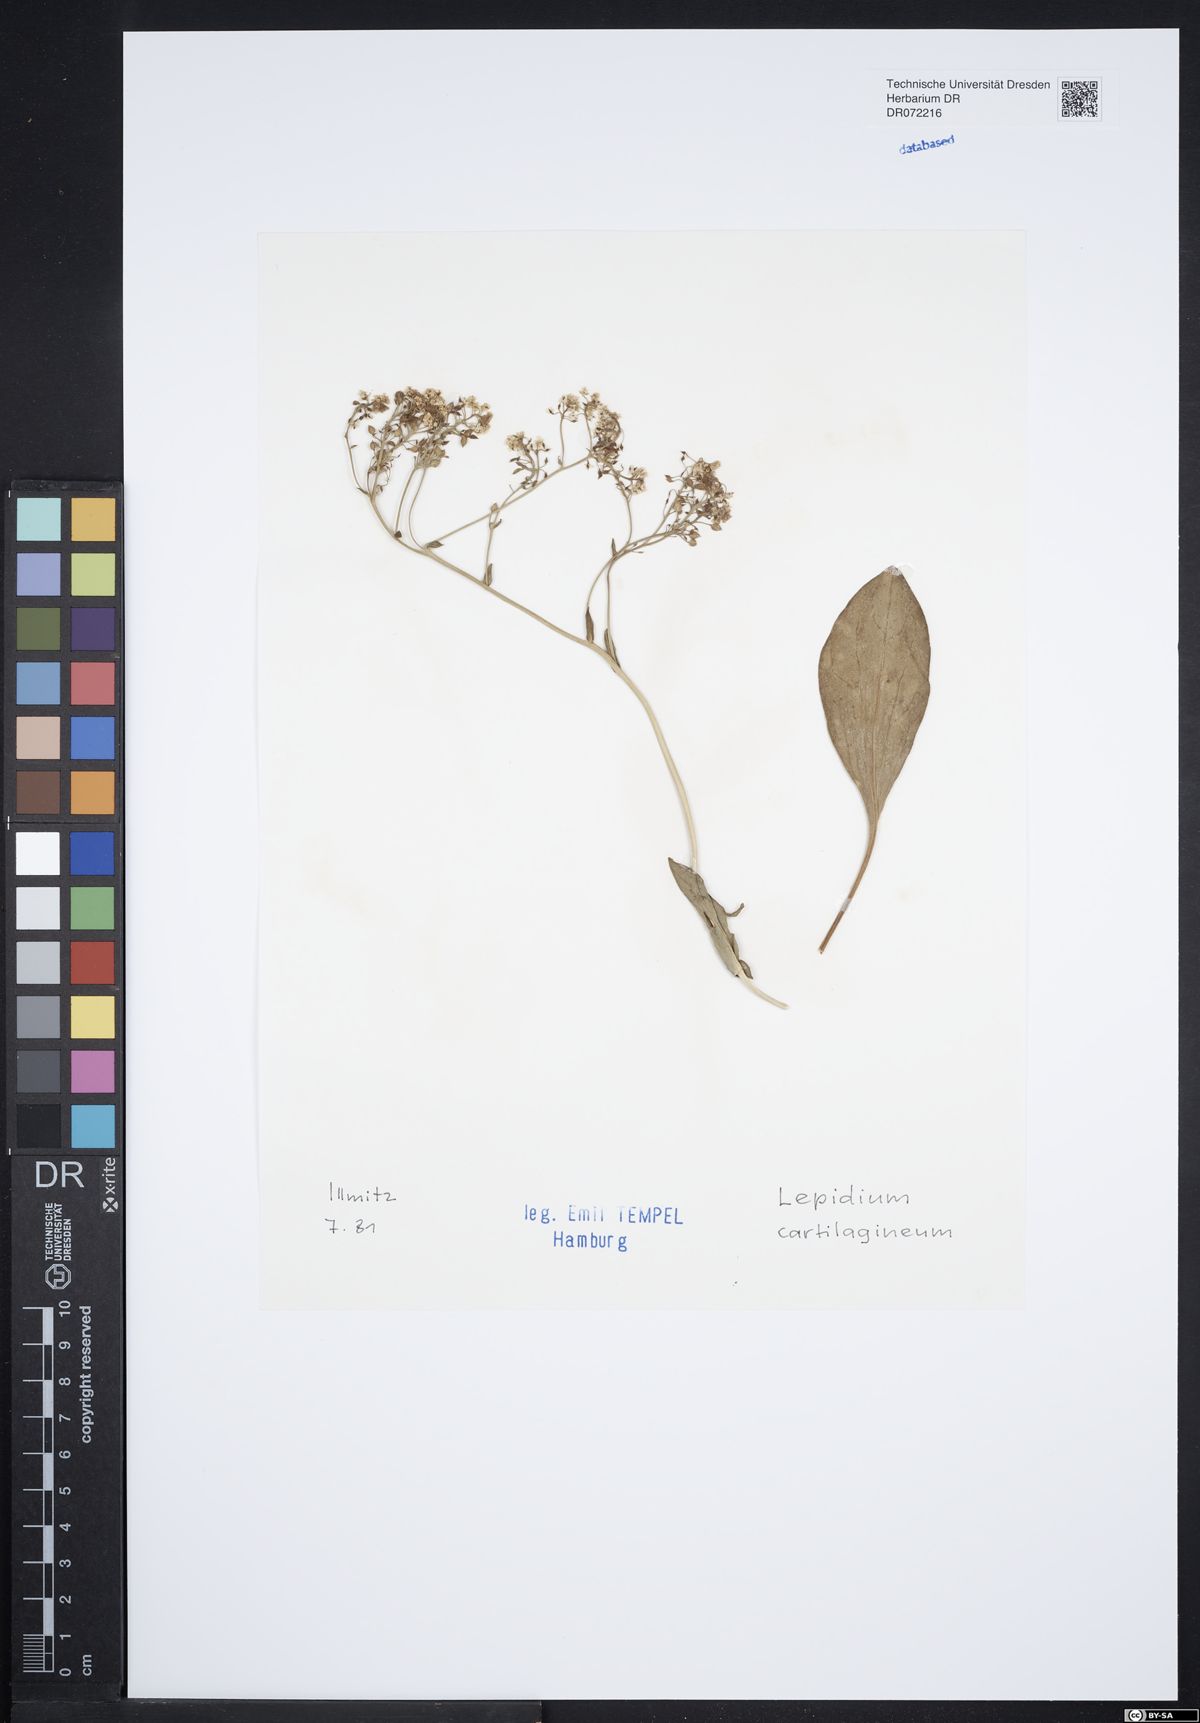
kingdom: Plantae
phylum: Tracheophyta
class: Magnoliopsida
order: Brassicales
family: Brassicaceae
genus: Lepidium
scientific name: Lepidium cartilagineum
